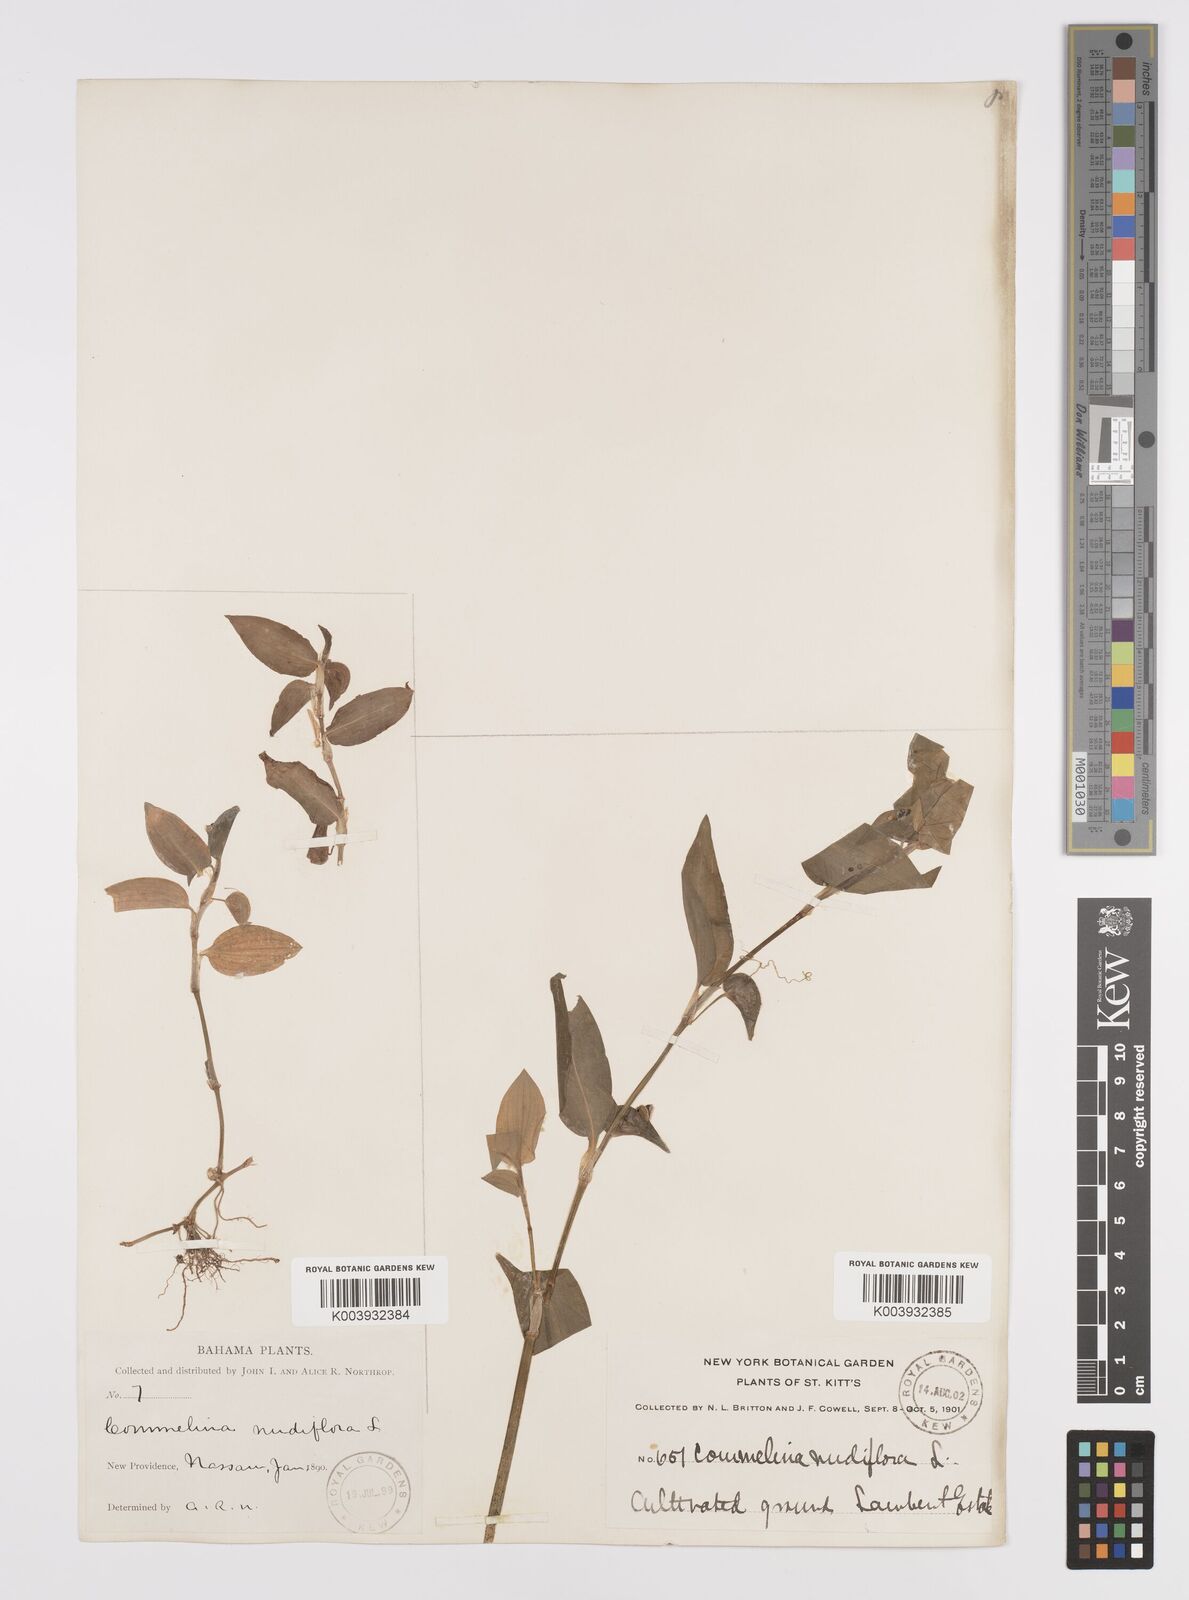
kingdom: Plantae
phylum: Tracheophyta
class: Liliopsida
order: Commelinales
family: Commelinaceae
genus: Commelina
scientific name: Commelina
